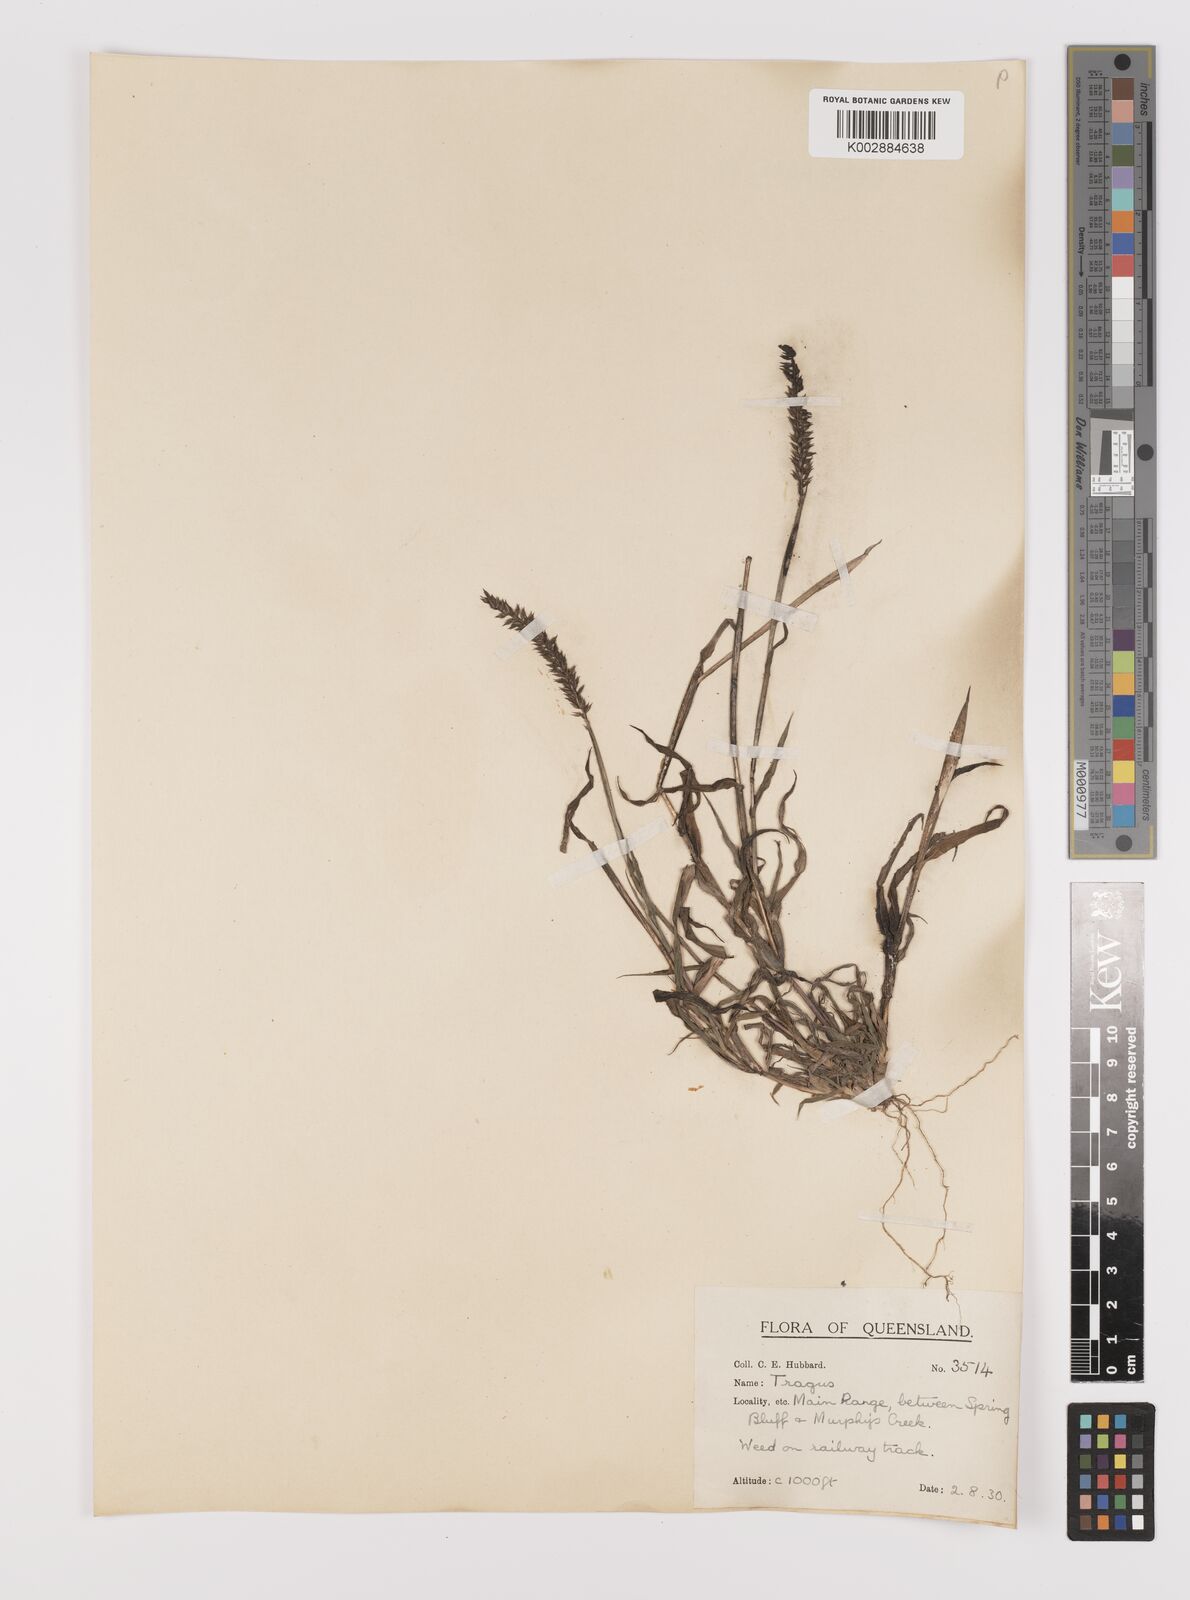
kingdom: Plantae
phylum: Tracheophyta
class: Liliopsida
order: Poales
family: Poaceae
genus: Tragus
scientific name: Tragus australianus
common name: Australian bur-grass
